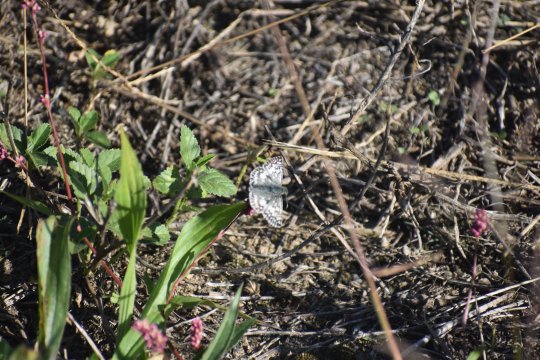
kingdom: Animalia
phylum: Arthropoda
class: Insecta
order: Lepidoptera
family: Hesperiidae
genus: Pyrgus
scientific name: Pyrgus
